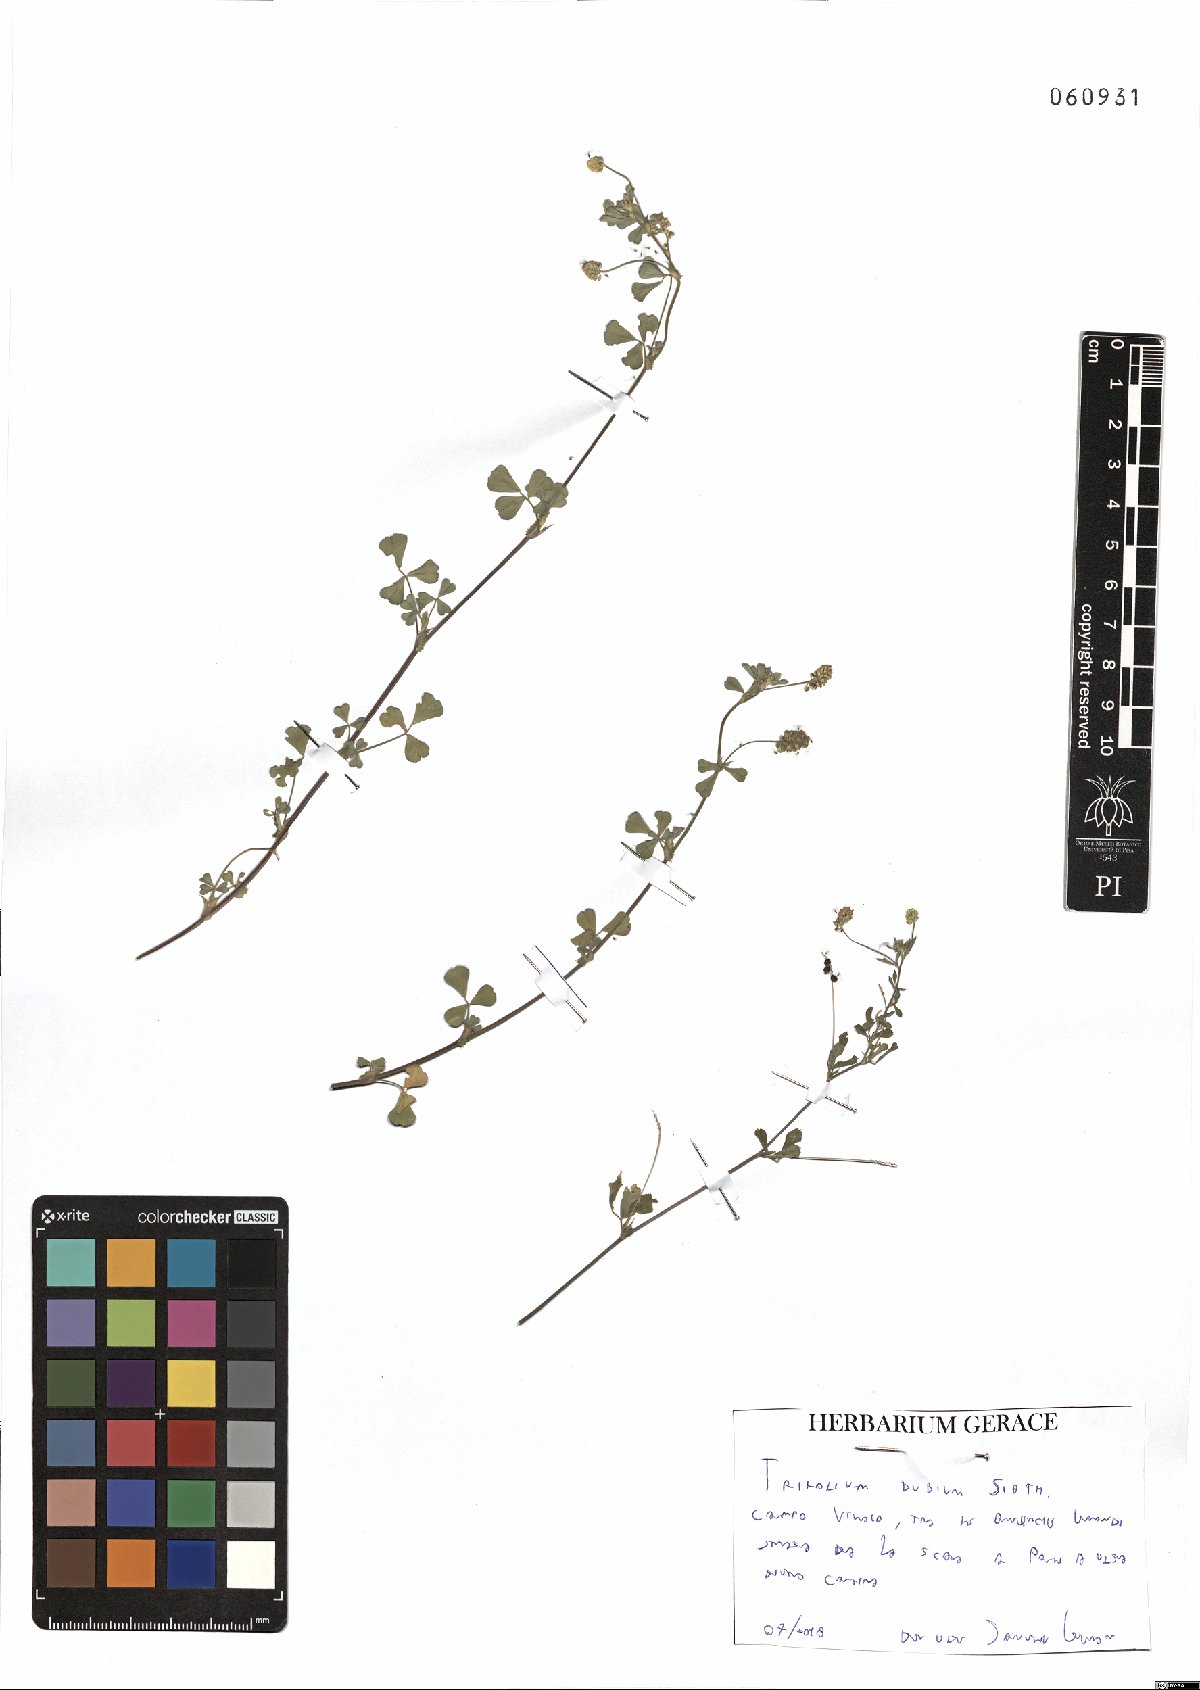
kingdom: Plantae
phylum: Tracheophyta
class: Magnoliopsida
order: Fabales
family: Fabaceae
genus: Trifolium
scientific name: Trifolium dubium
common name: Suckling clover
